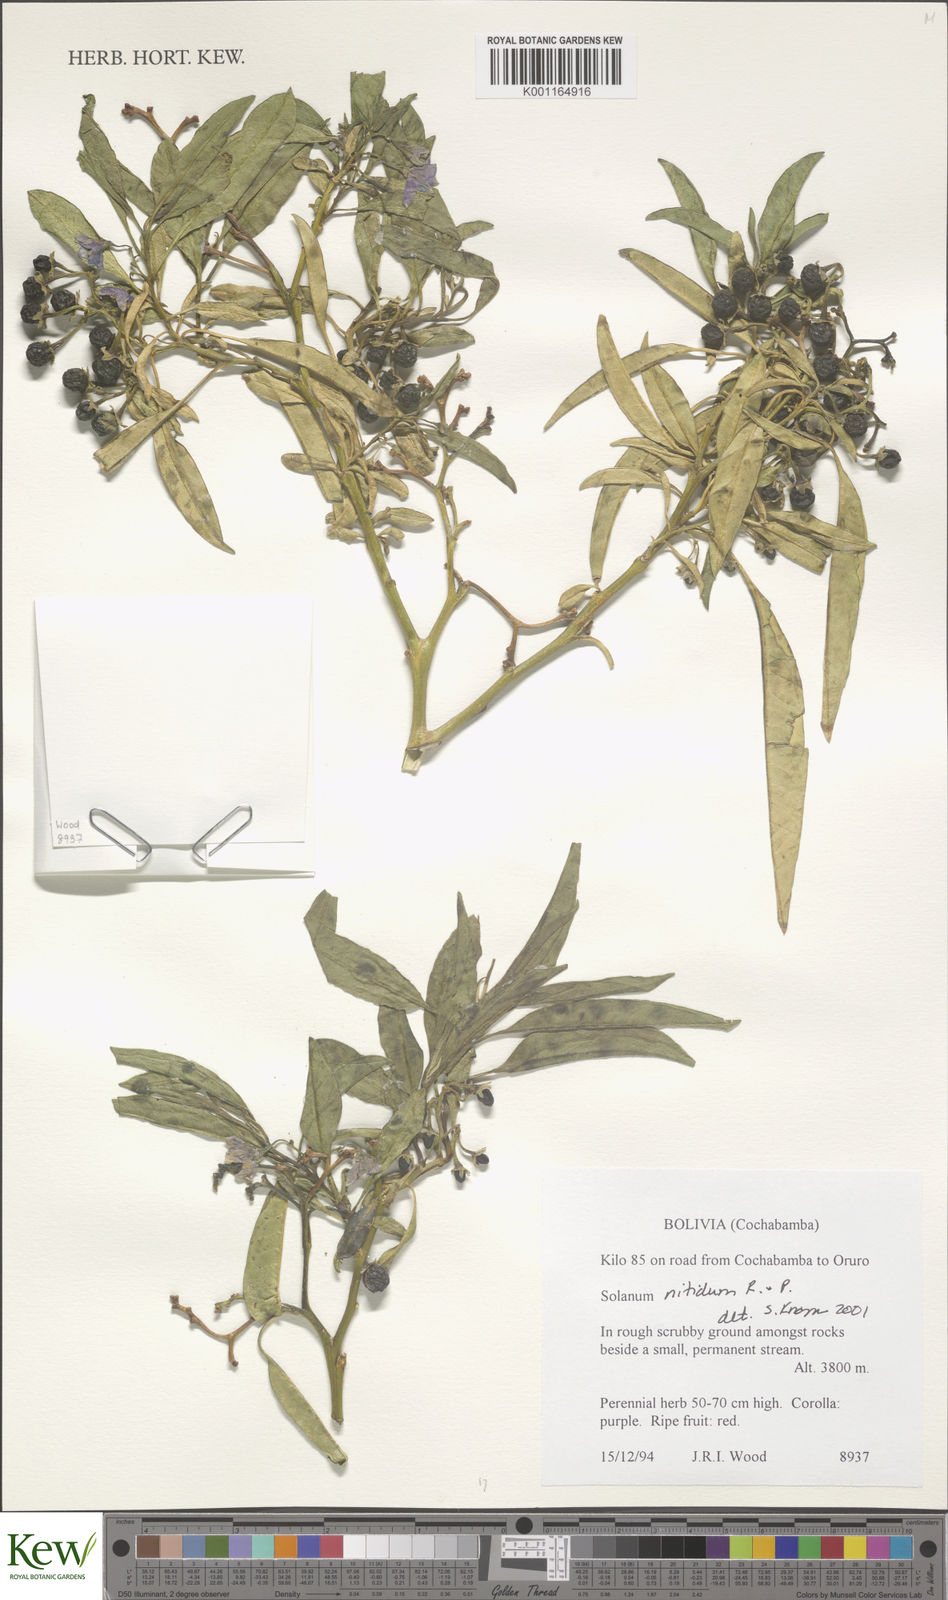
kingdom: Plantae
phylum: Tracheophyta
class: Magnoliopsida
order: Solanales
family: Solanaceae
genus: Solanum
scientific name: Solanum nitidum
